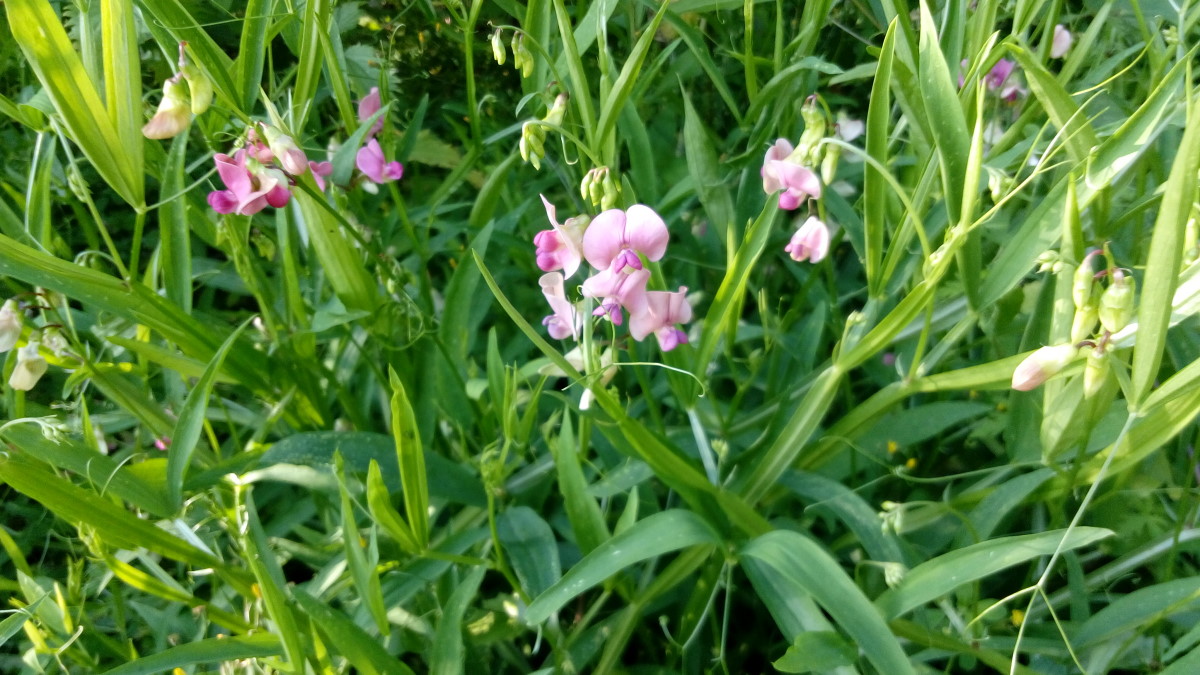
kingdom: Plantae
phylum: Tracheophyta
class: Magnoliopsida
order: Fabales
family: Fabaceae
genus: Lathyrus
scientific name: Lathyrus sylvestris
